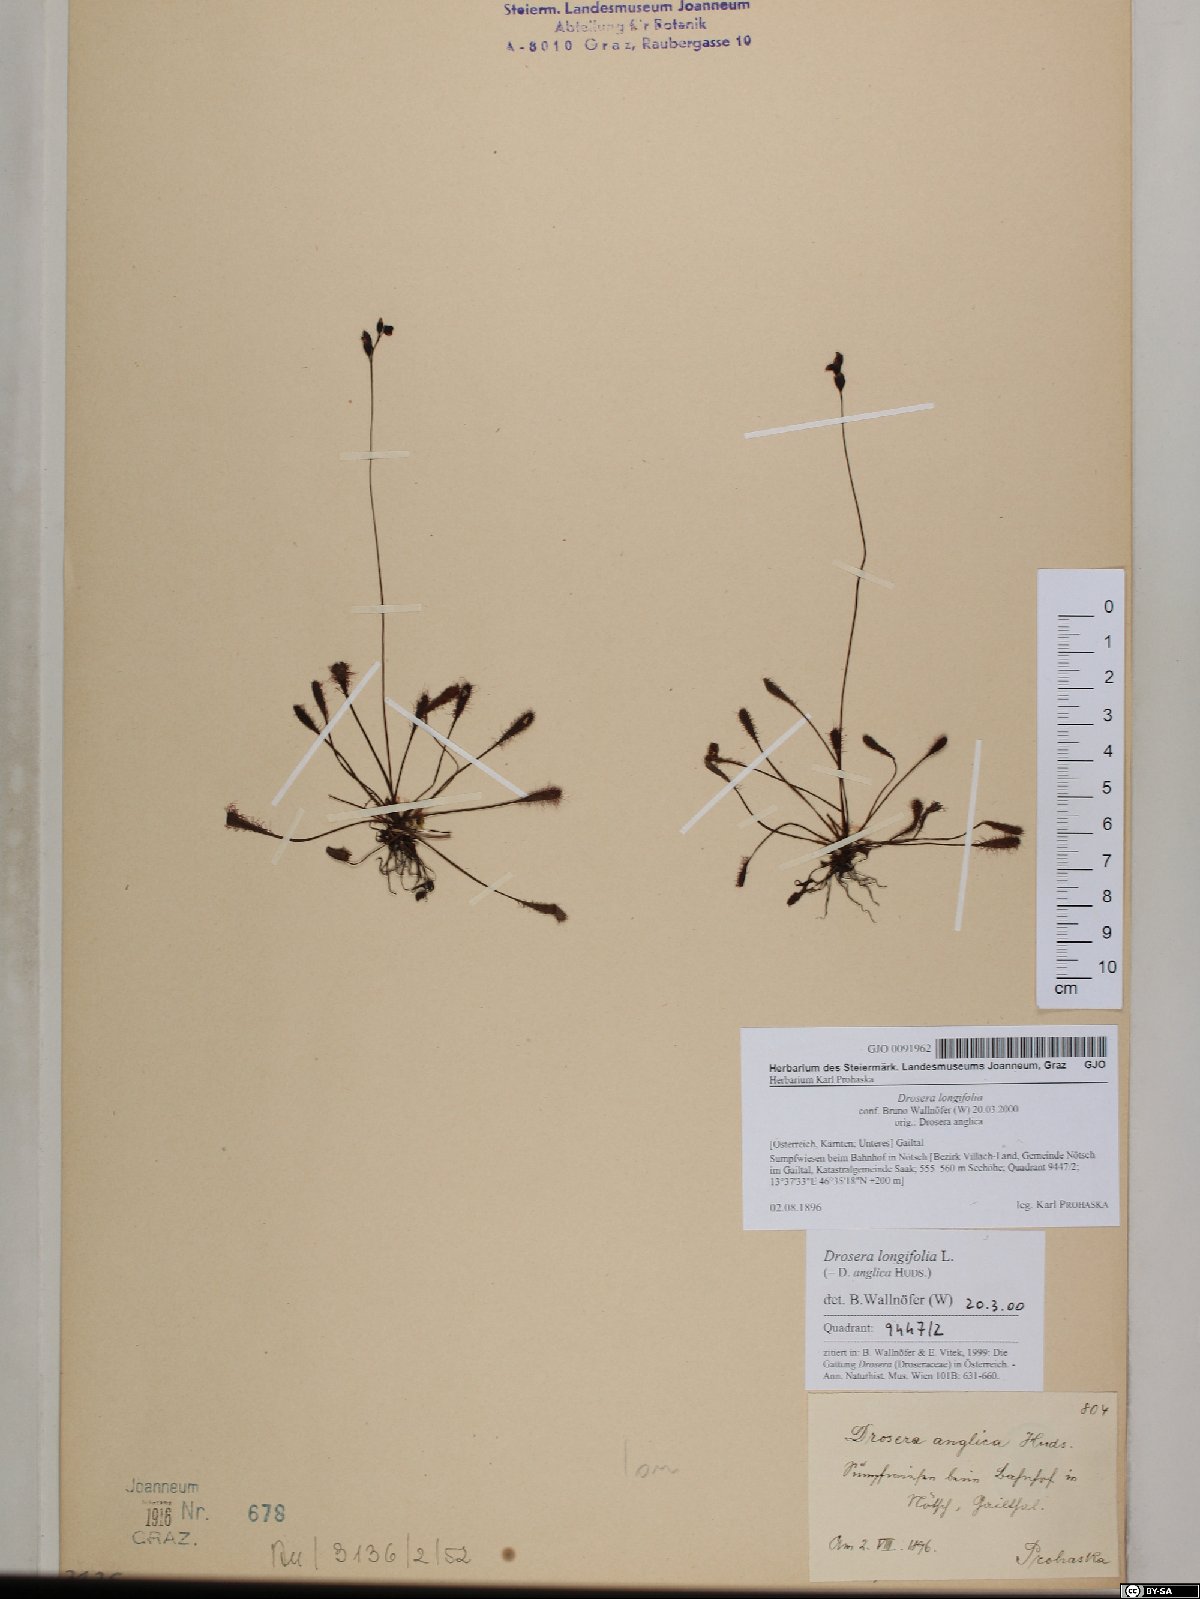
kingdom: Plantae
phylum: Tracheophyta
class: Magnoliopsida
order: Caryophyllales
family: Droseraceae
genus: Drosera
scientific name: Drosera anglica
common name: Great sundew
